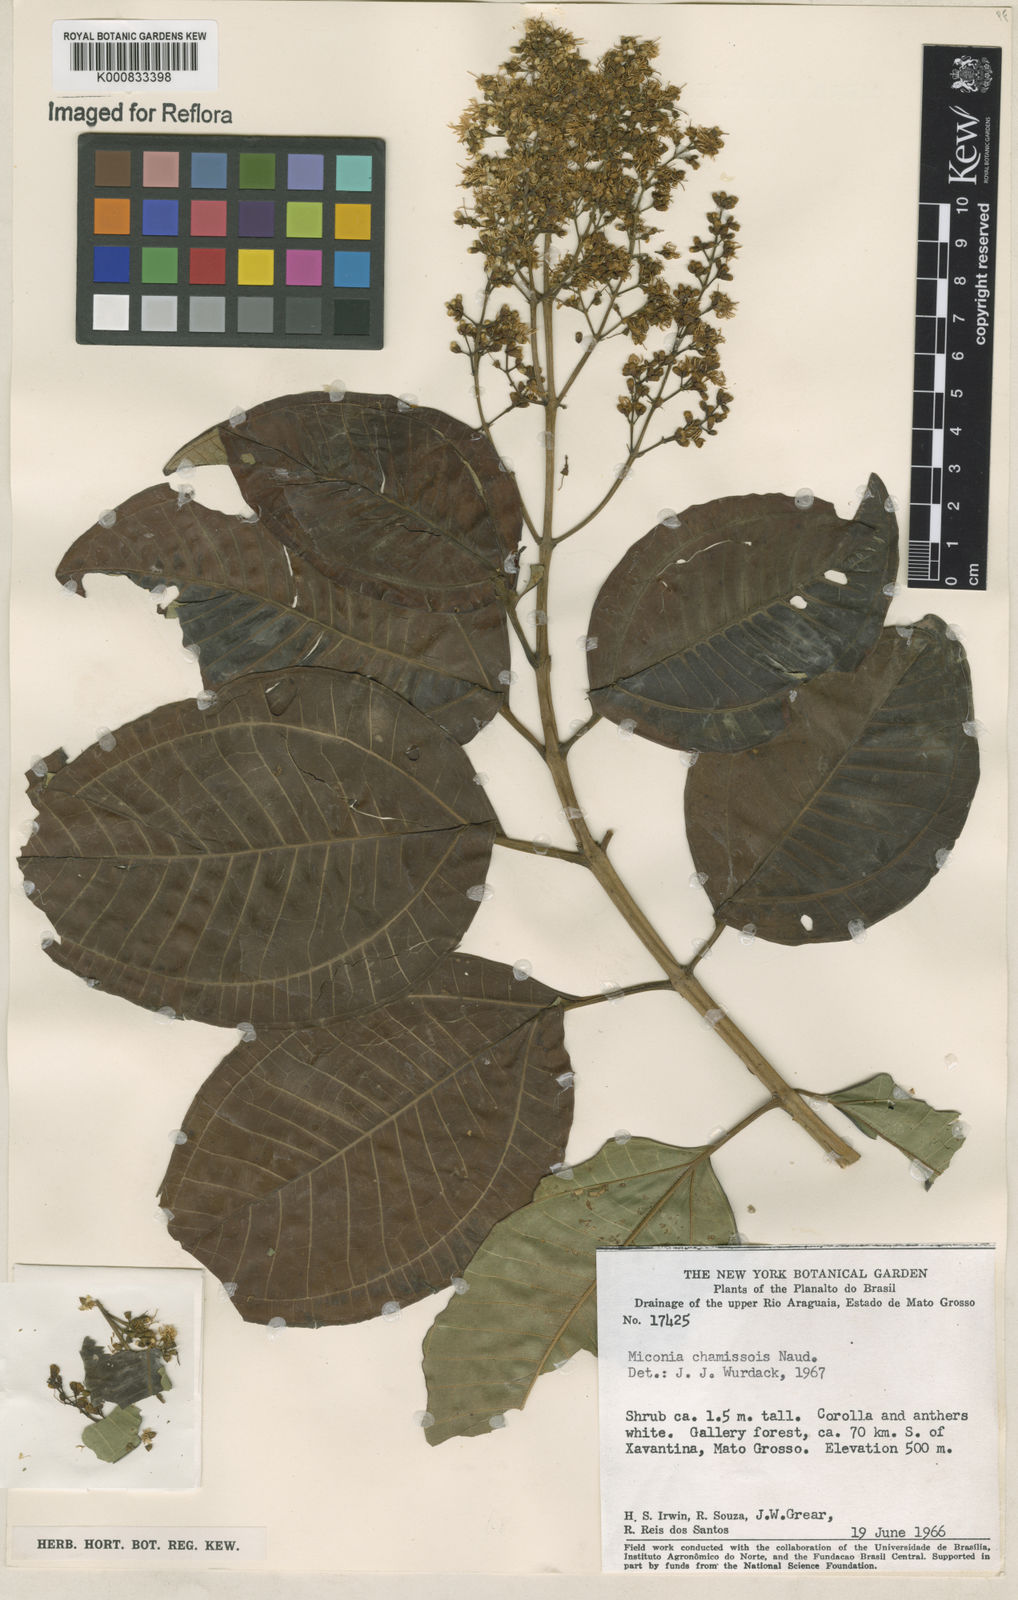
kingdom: Plantae
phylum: Tracheophyta
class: Magnoliopsida
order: Myrtales
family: Melastomataceae
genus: Miconia
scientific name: Miconia chamissois
